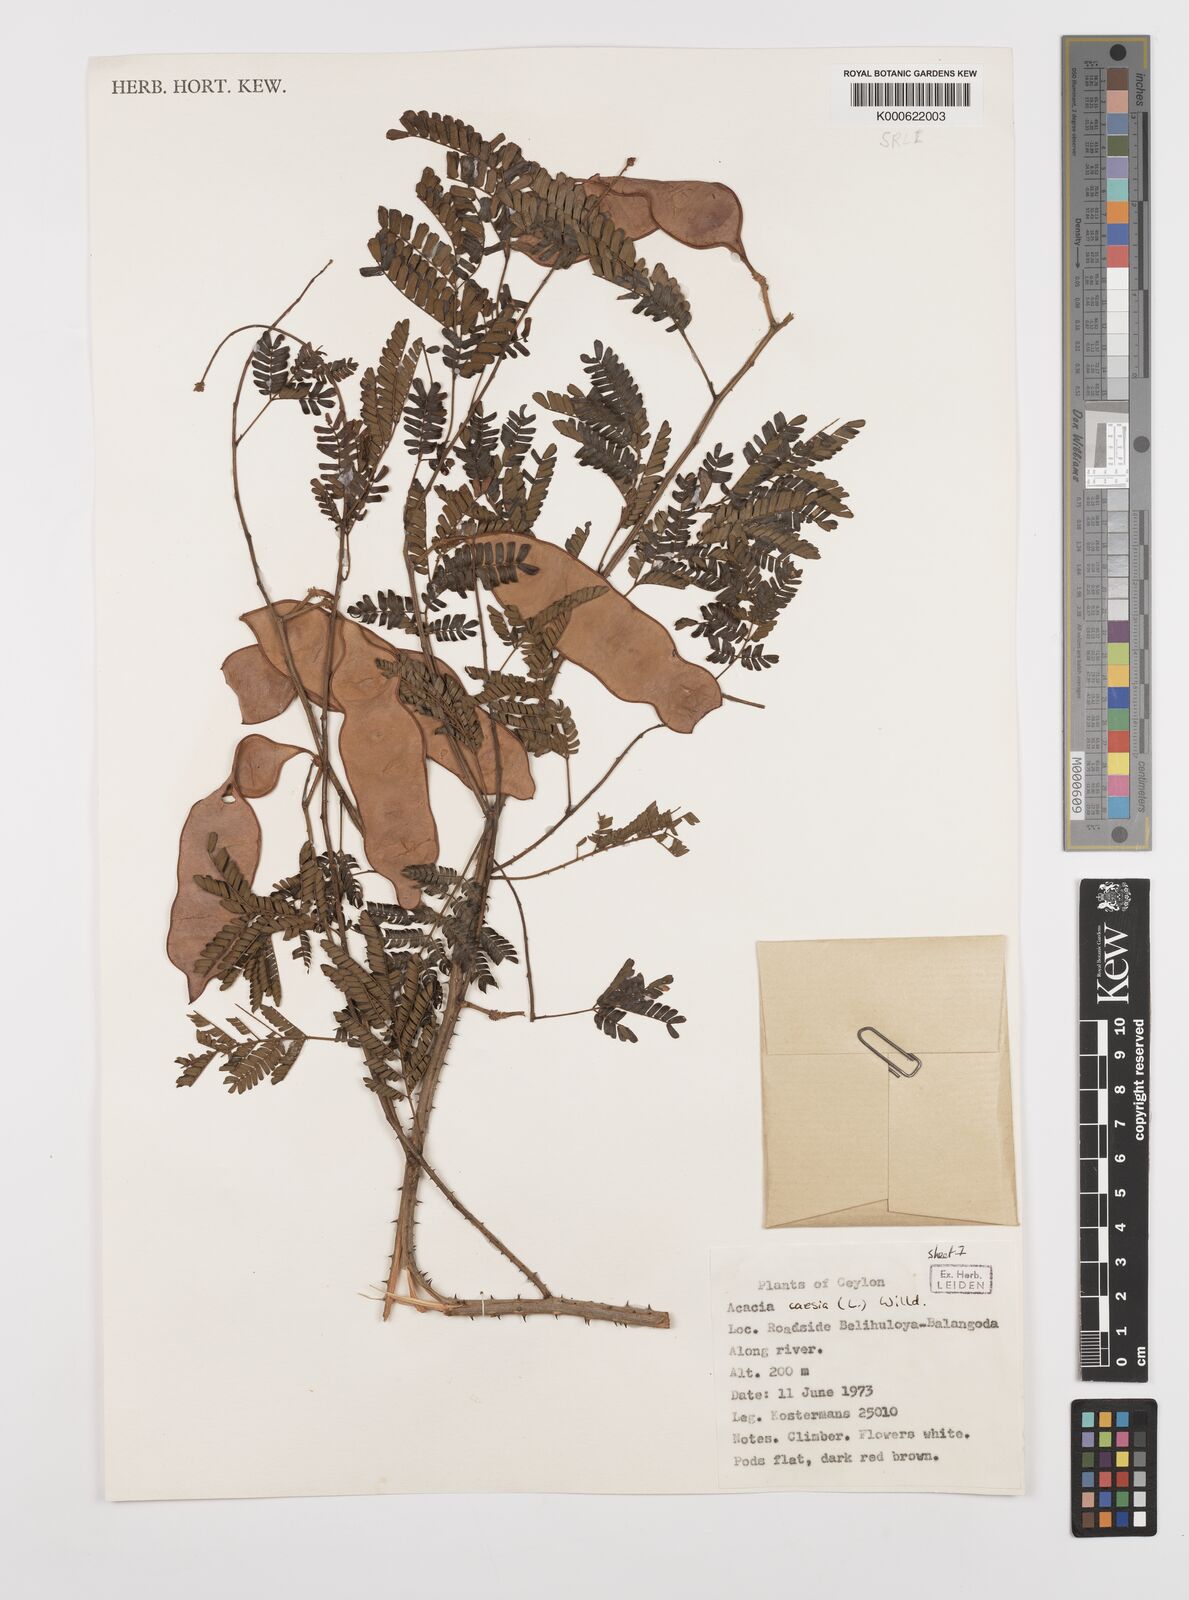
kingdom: Plantae
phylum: Tracheophyta
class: Magnoliopsida
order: Fabales
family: Fabaceae
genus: Senegalia
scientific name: Senegalia caesia
